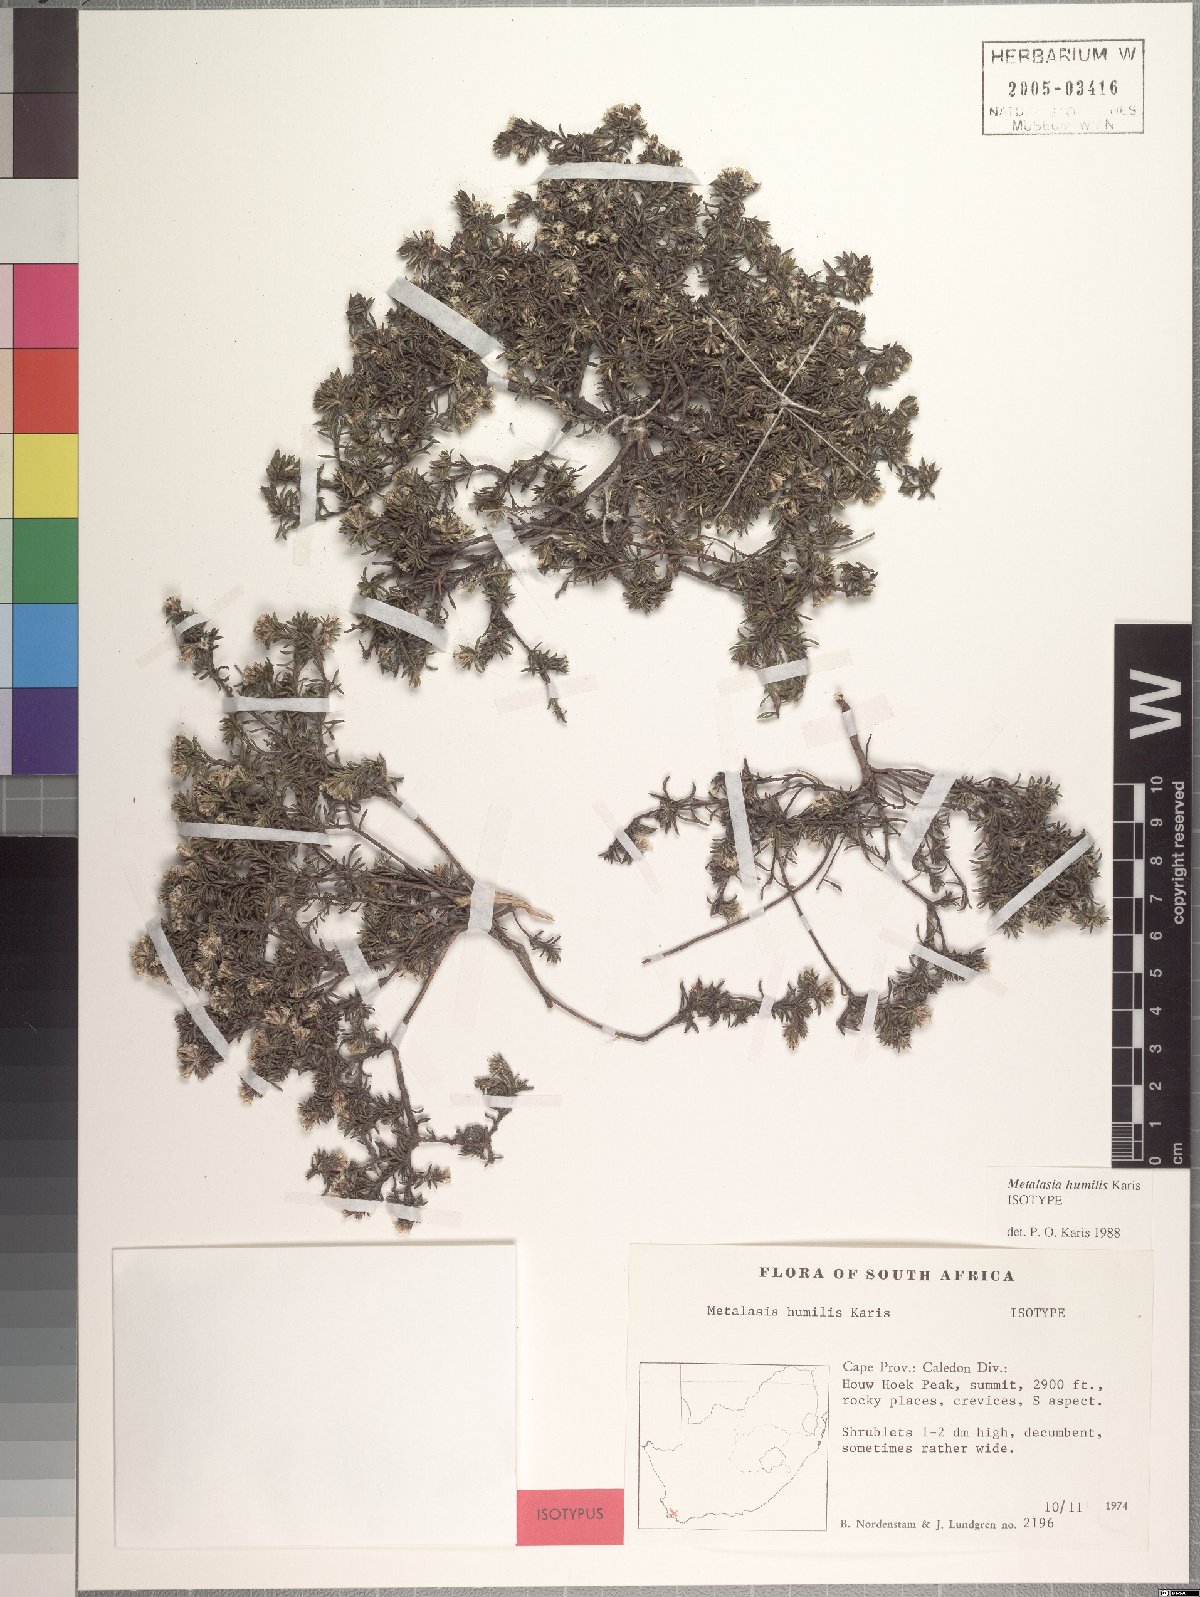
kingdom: Plantae
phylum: Tracheophyta
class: Magnoliopsida
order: Asterales
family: Asteraceae
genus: Metalasia
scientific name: Metalasia humilis
